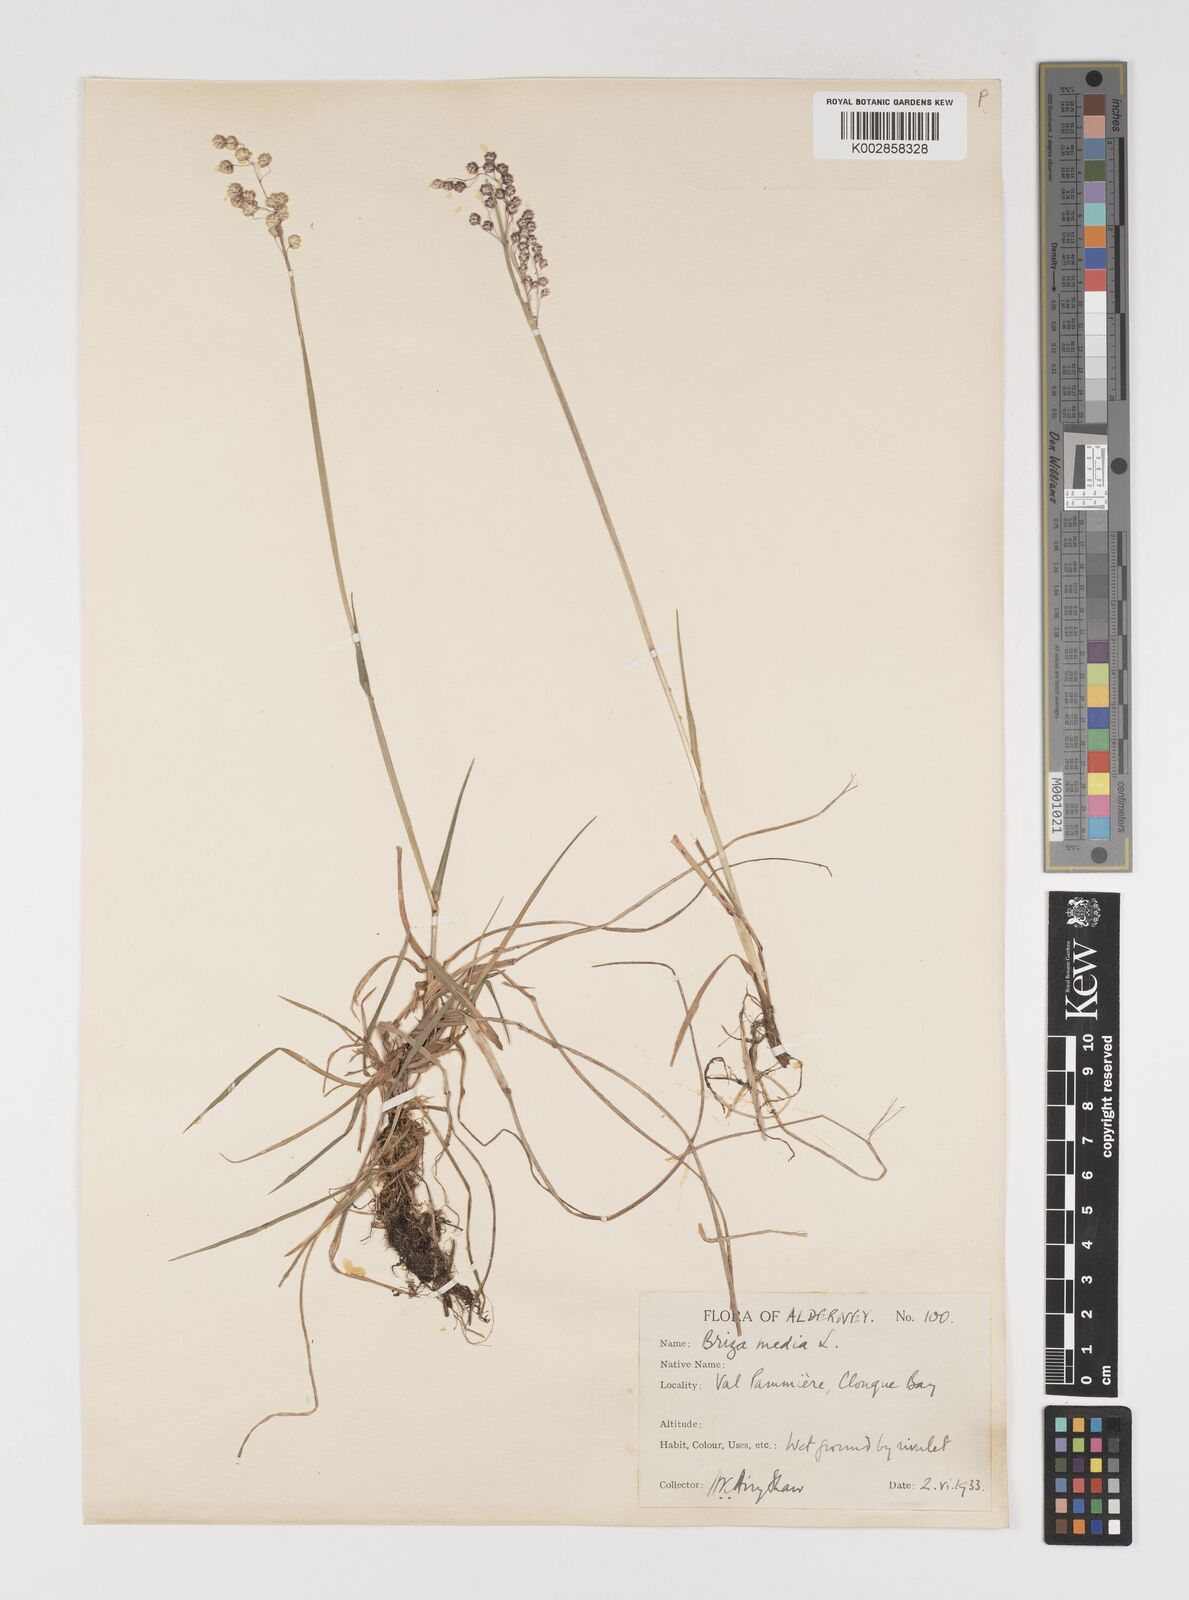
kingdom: Plantae
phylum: Tracheophyta
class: Liliopsida
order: Poales
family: Poaceae
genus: Briza
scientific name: Briza media
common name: Quaking grass
